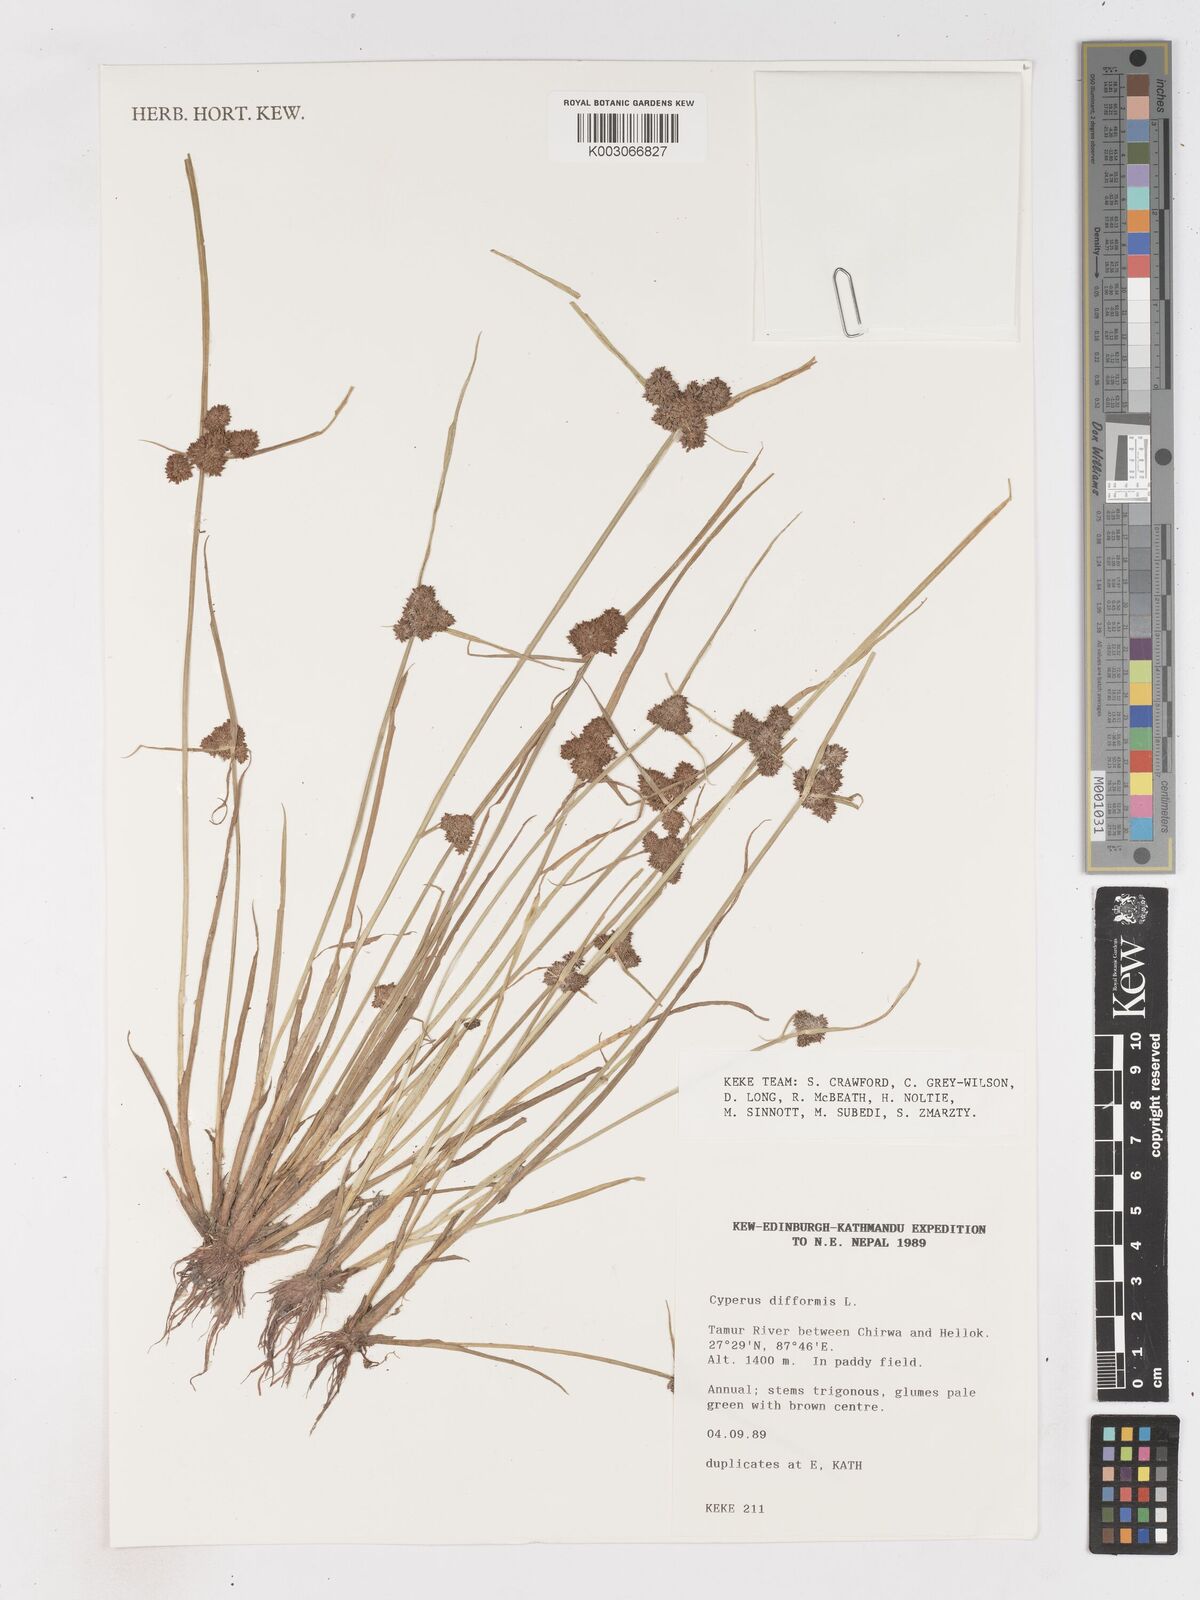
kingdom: Plantae
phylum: Tracheophyta
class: Liliopsida
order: Poales
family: Cyperaceae
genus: Cyperus
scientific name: Cyperus difformis
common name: Variable flatsedge
